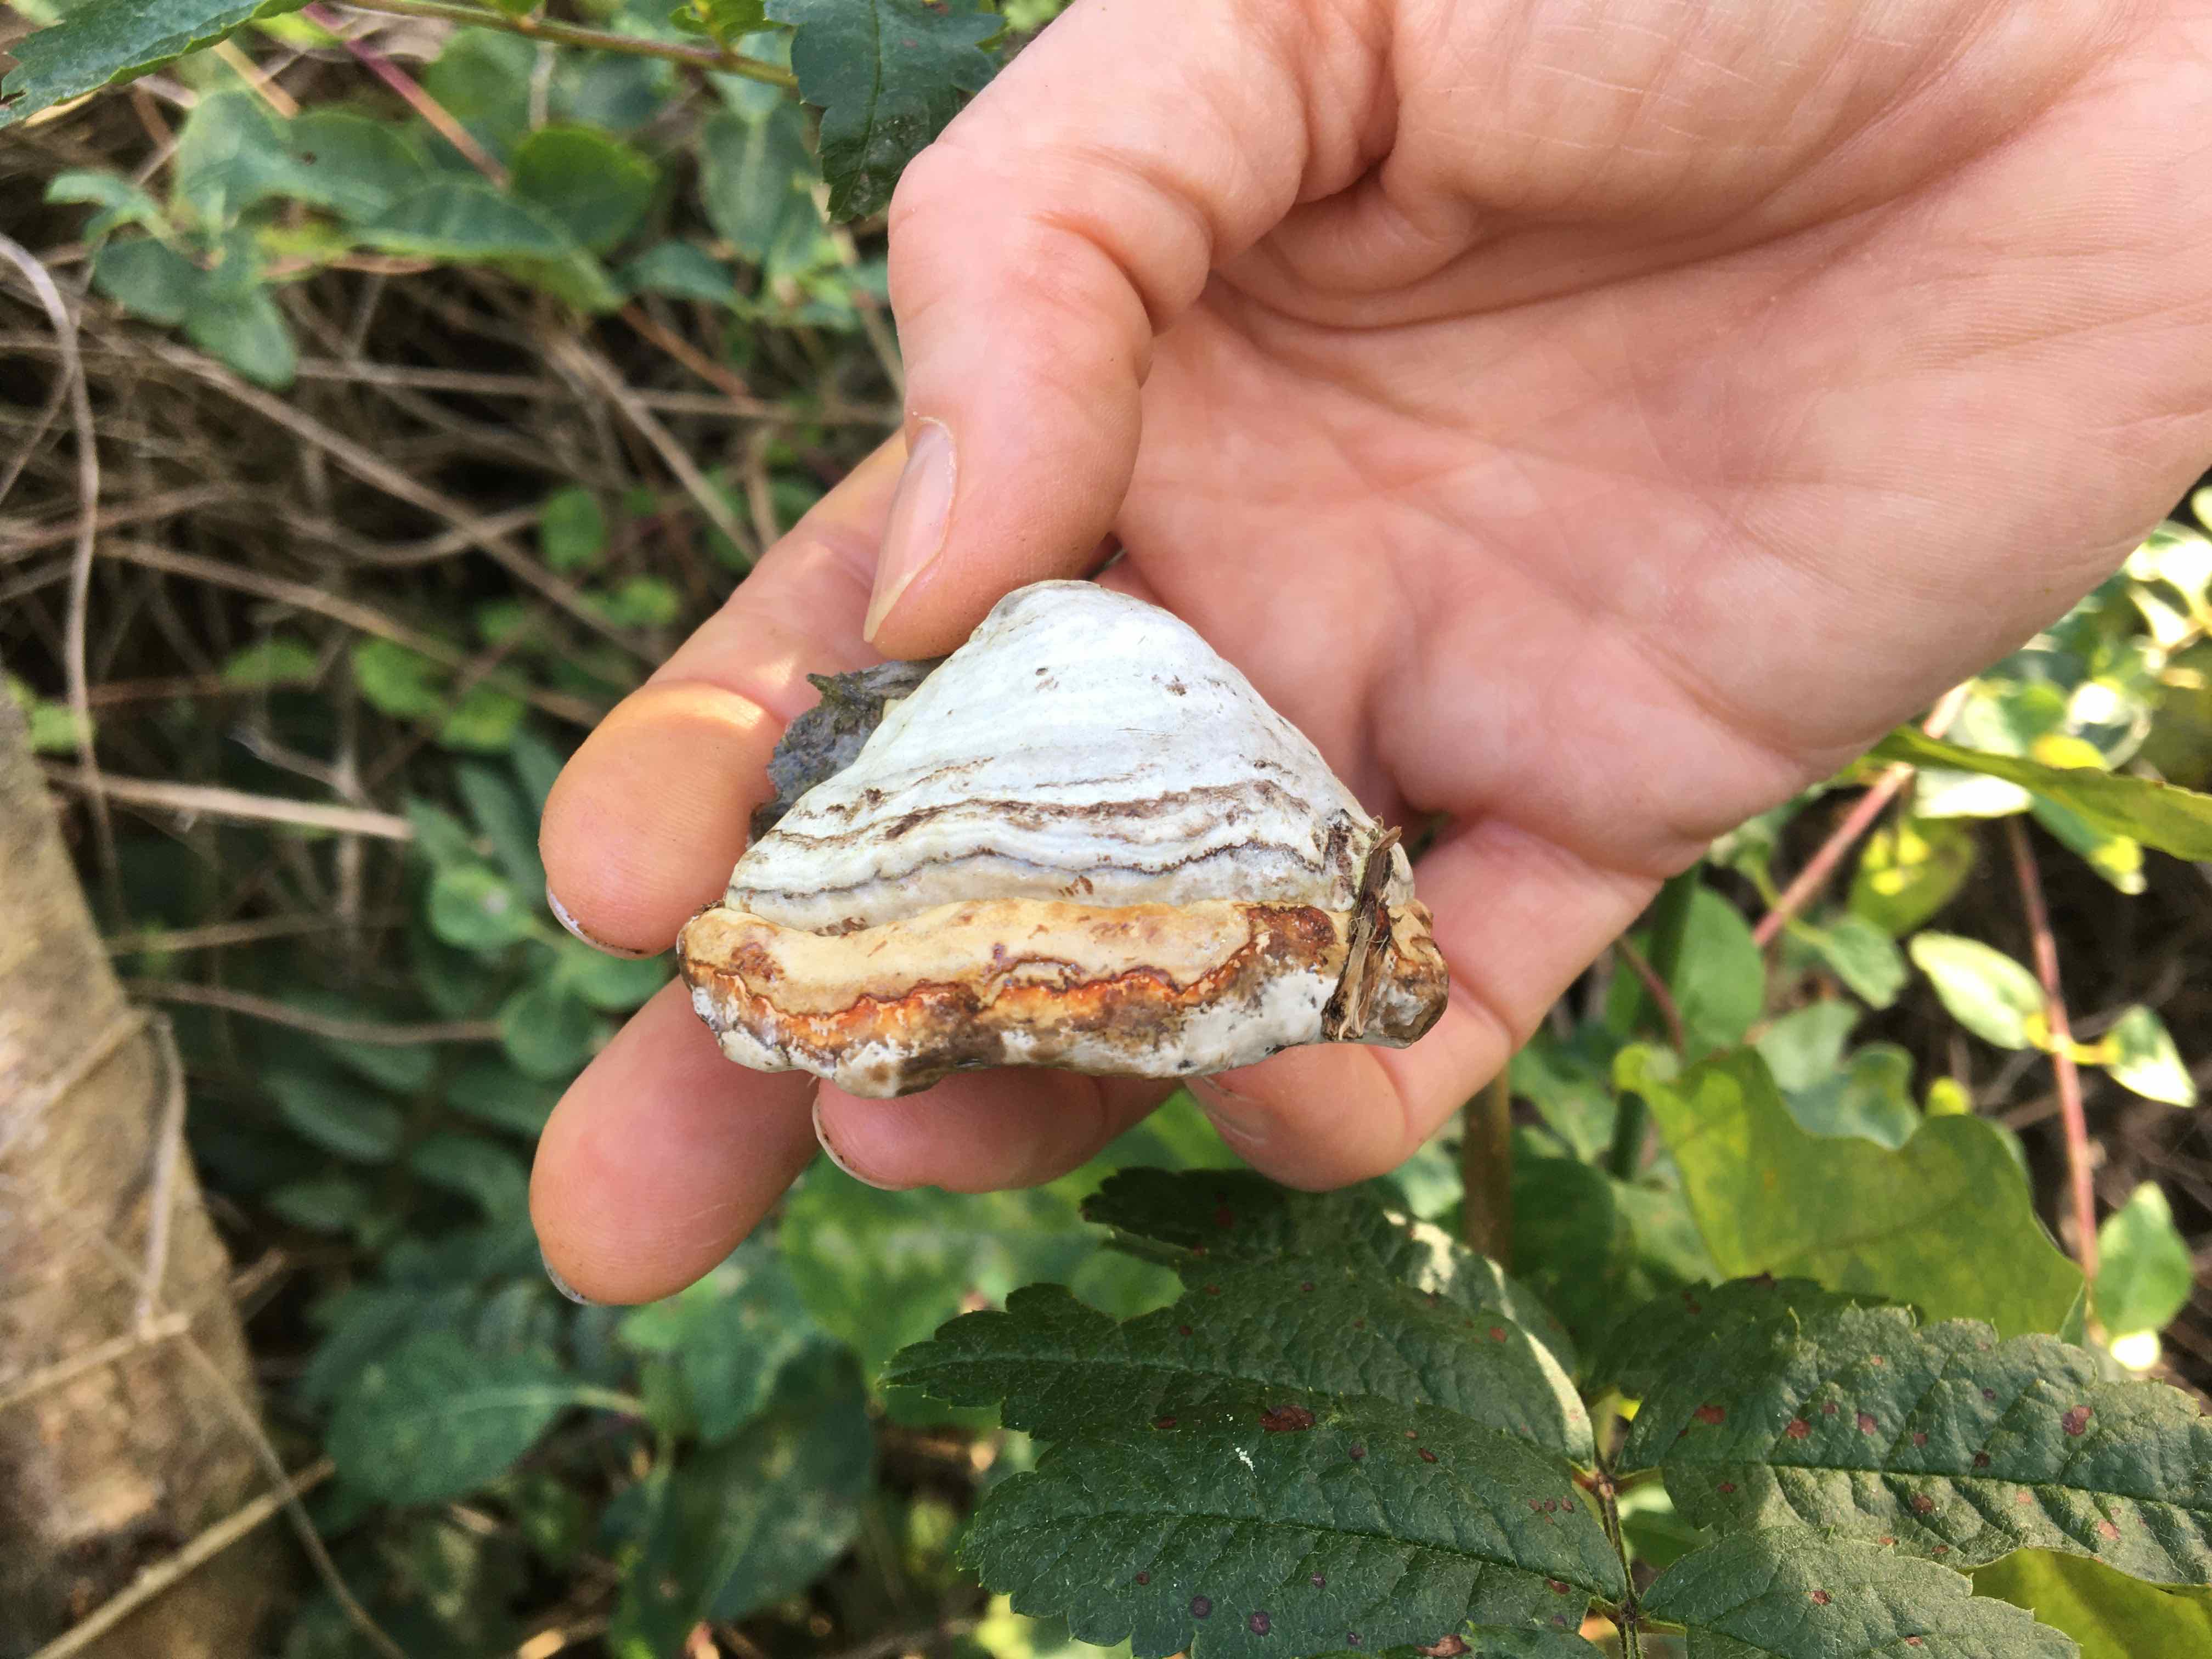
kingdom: Fungi
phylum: Basidiomycota
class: Agaricomycetes
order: Polyporales
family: Polyporaceae
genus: Fomes
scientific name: Fomes fomentarius
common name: tøndersvamp
